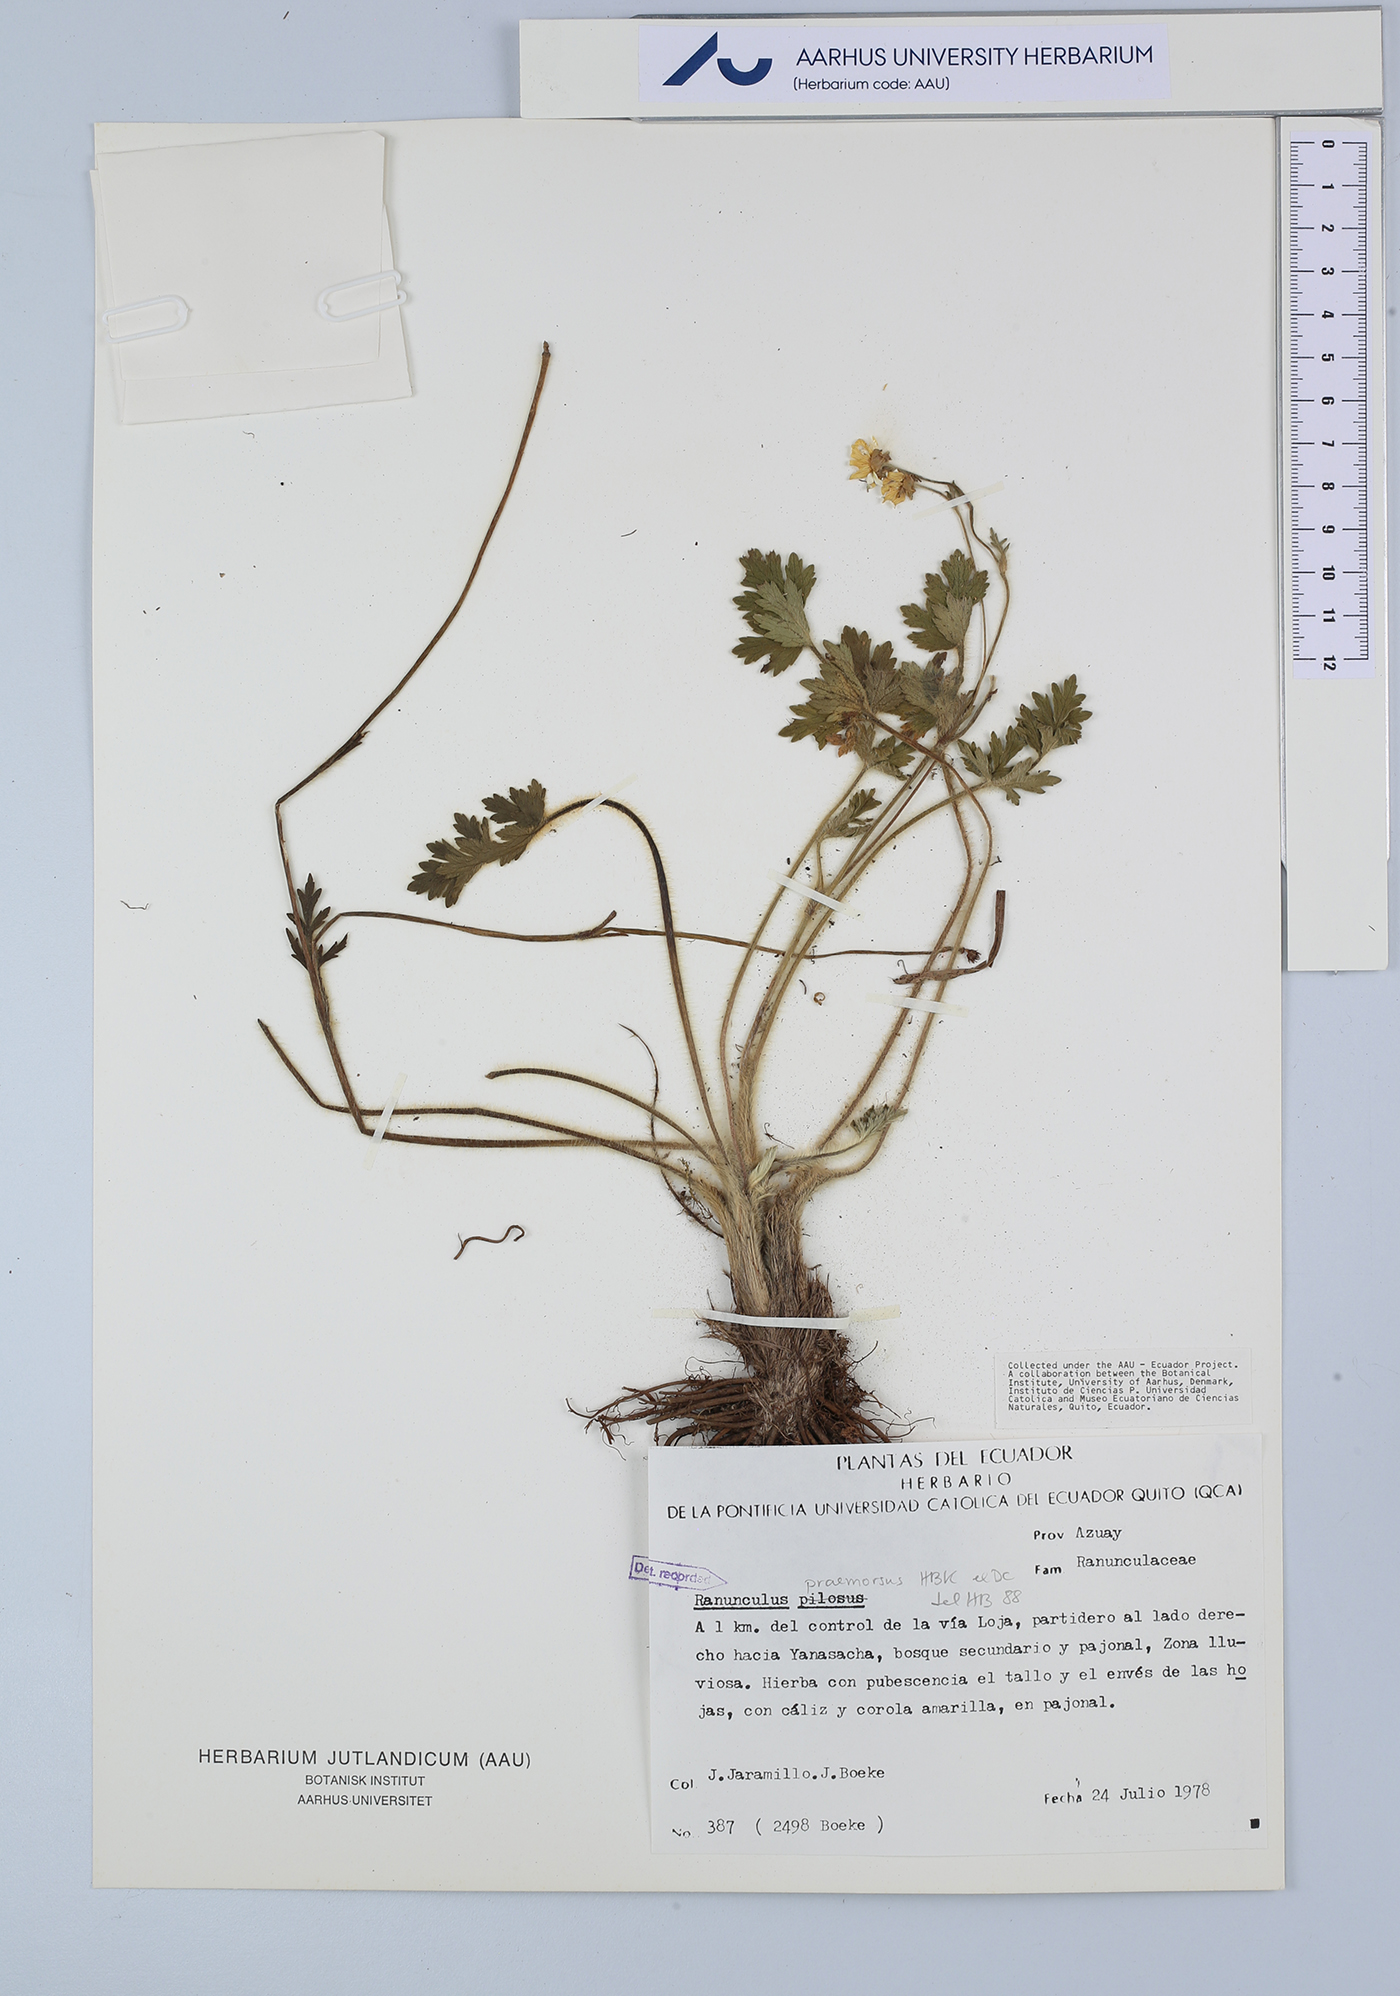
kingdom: Plantae
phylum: Tracheophyta
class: Magnoliopsida
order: Ranunculales
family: Ranunculaceae
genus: Ranunculus
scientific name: Ranunculus praemorsus
